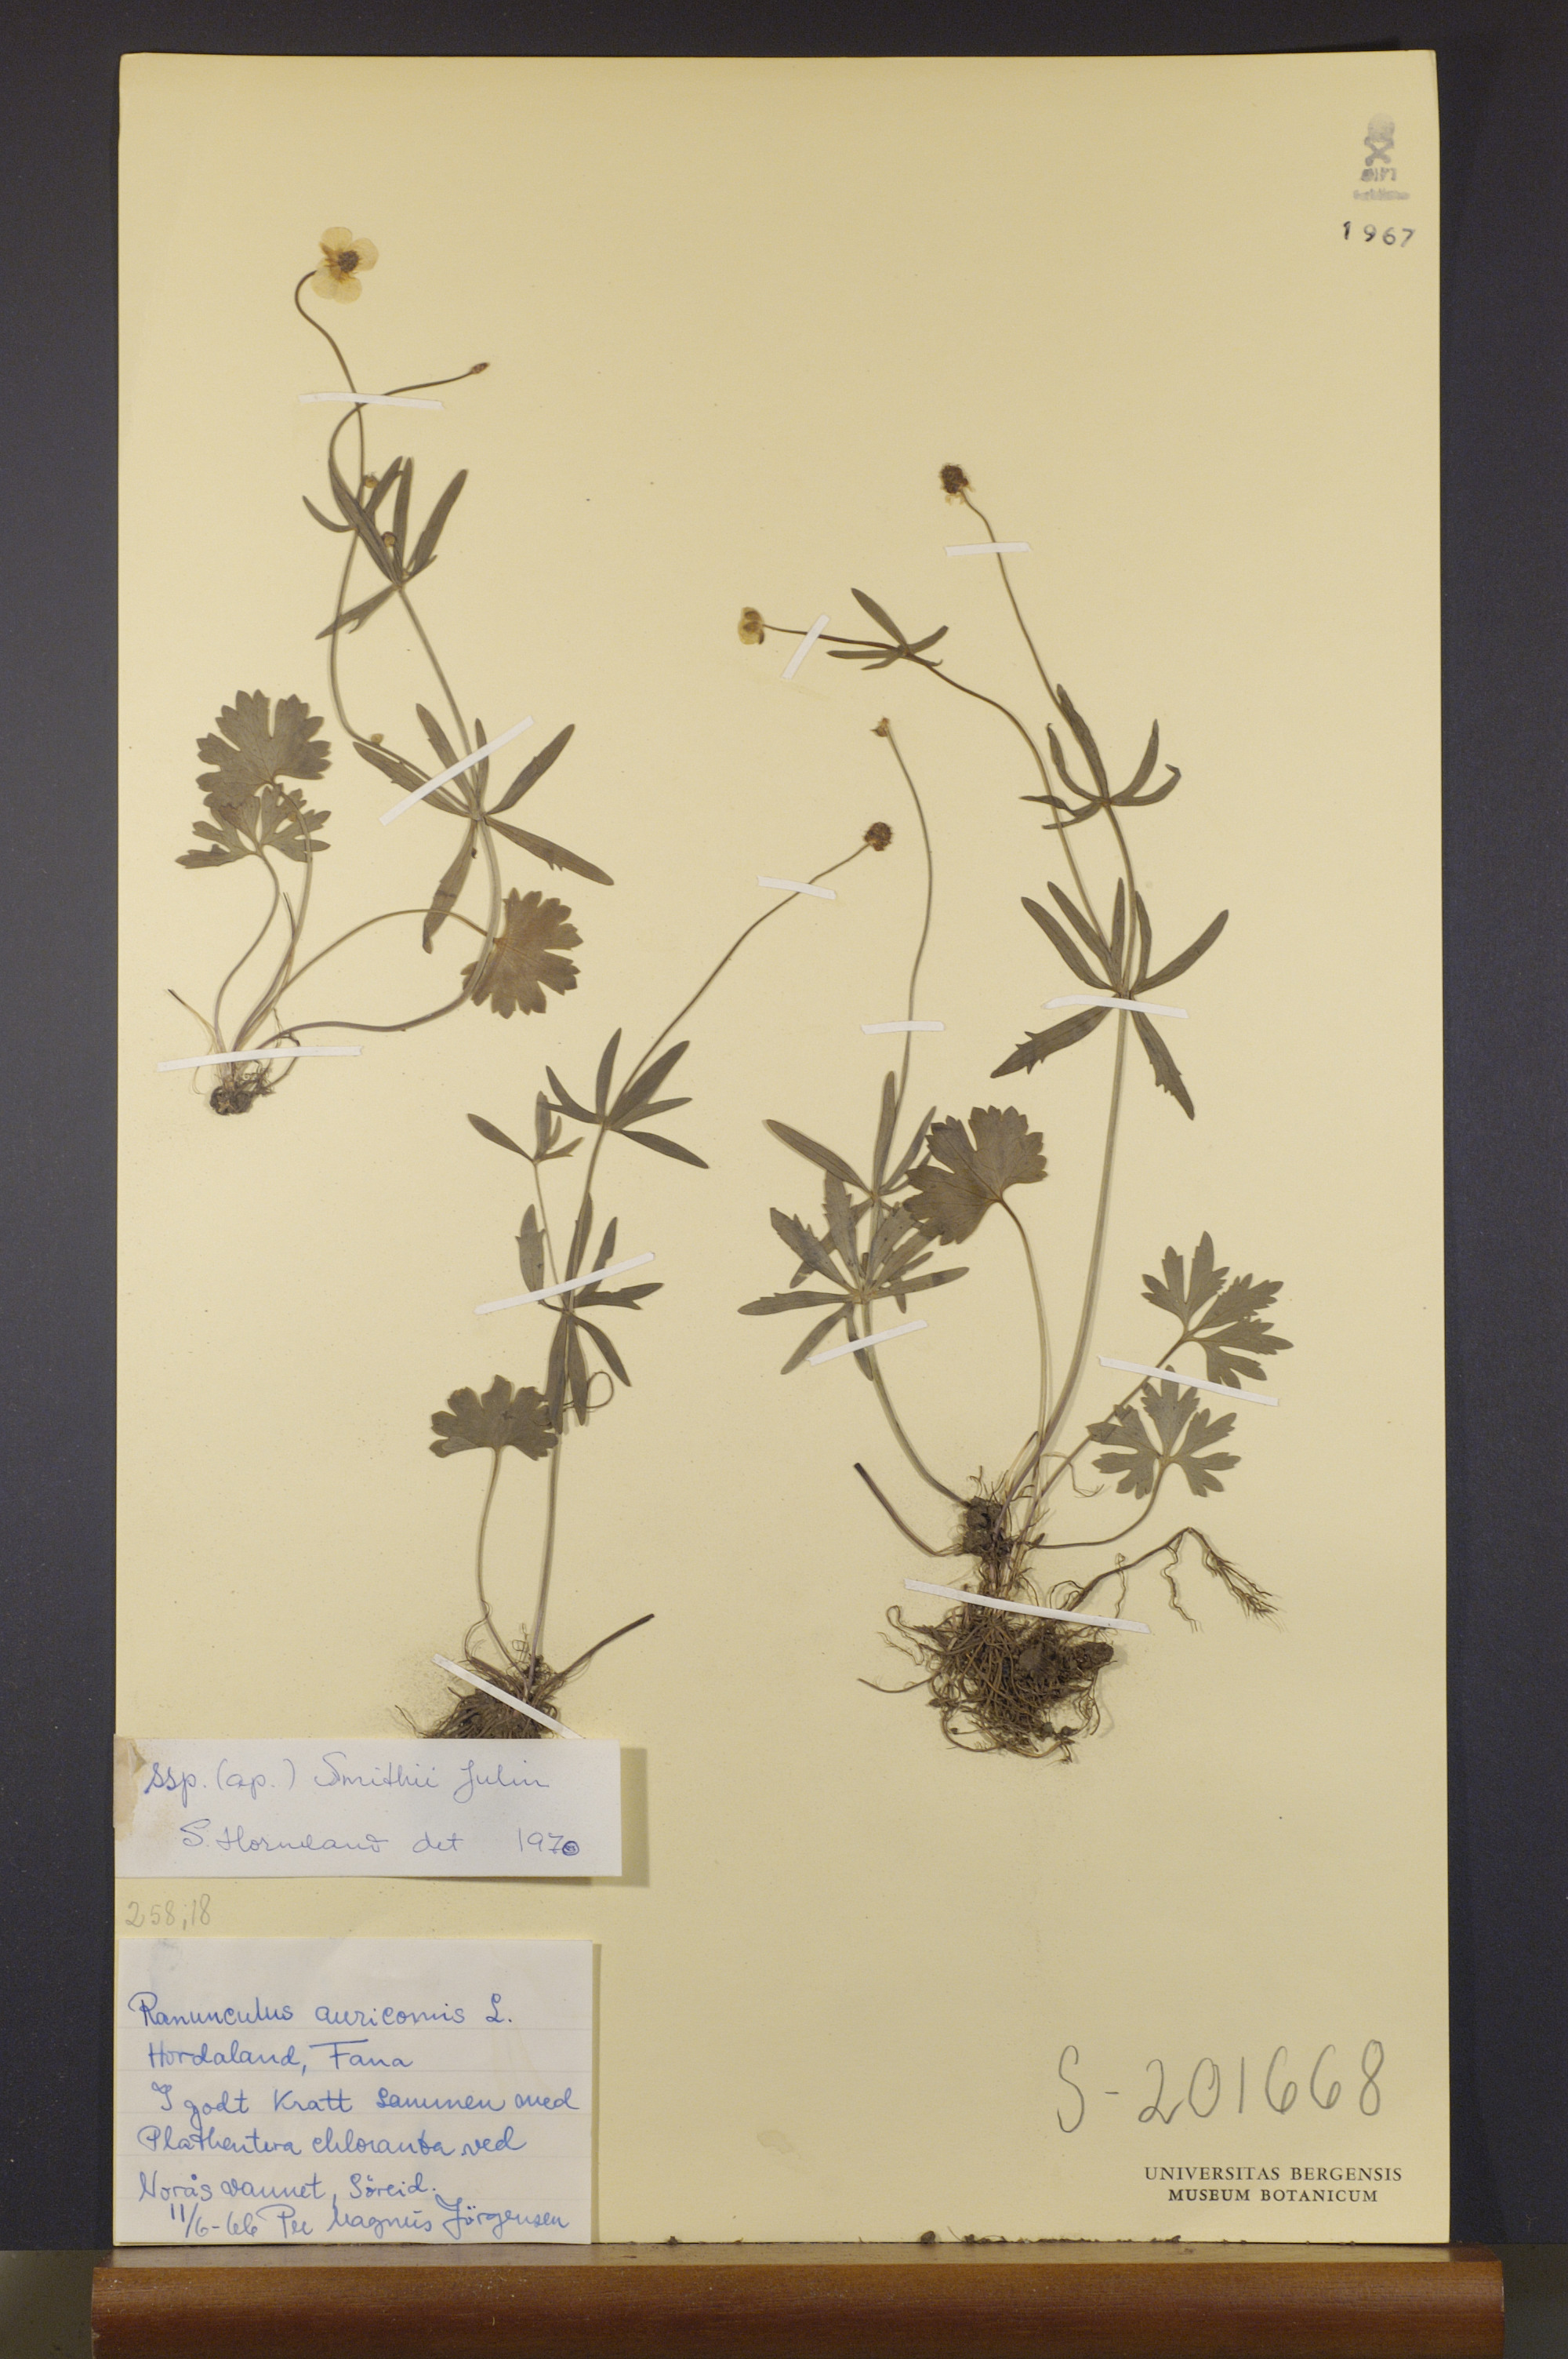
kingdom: Plantae
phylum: Tracheophyta
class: Magnoliopsida
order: Ranunculales
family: Ranunculaceae
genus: Ranunculus
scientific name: Ranunculus pulchridentatus
